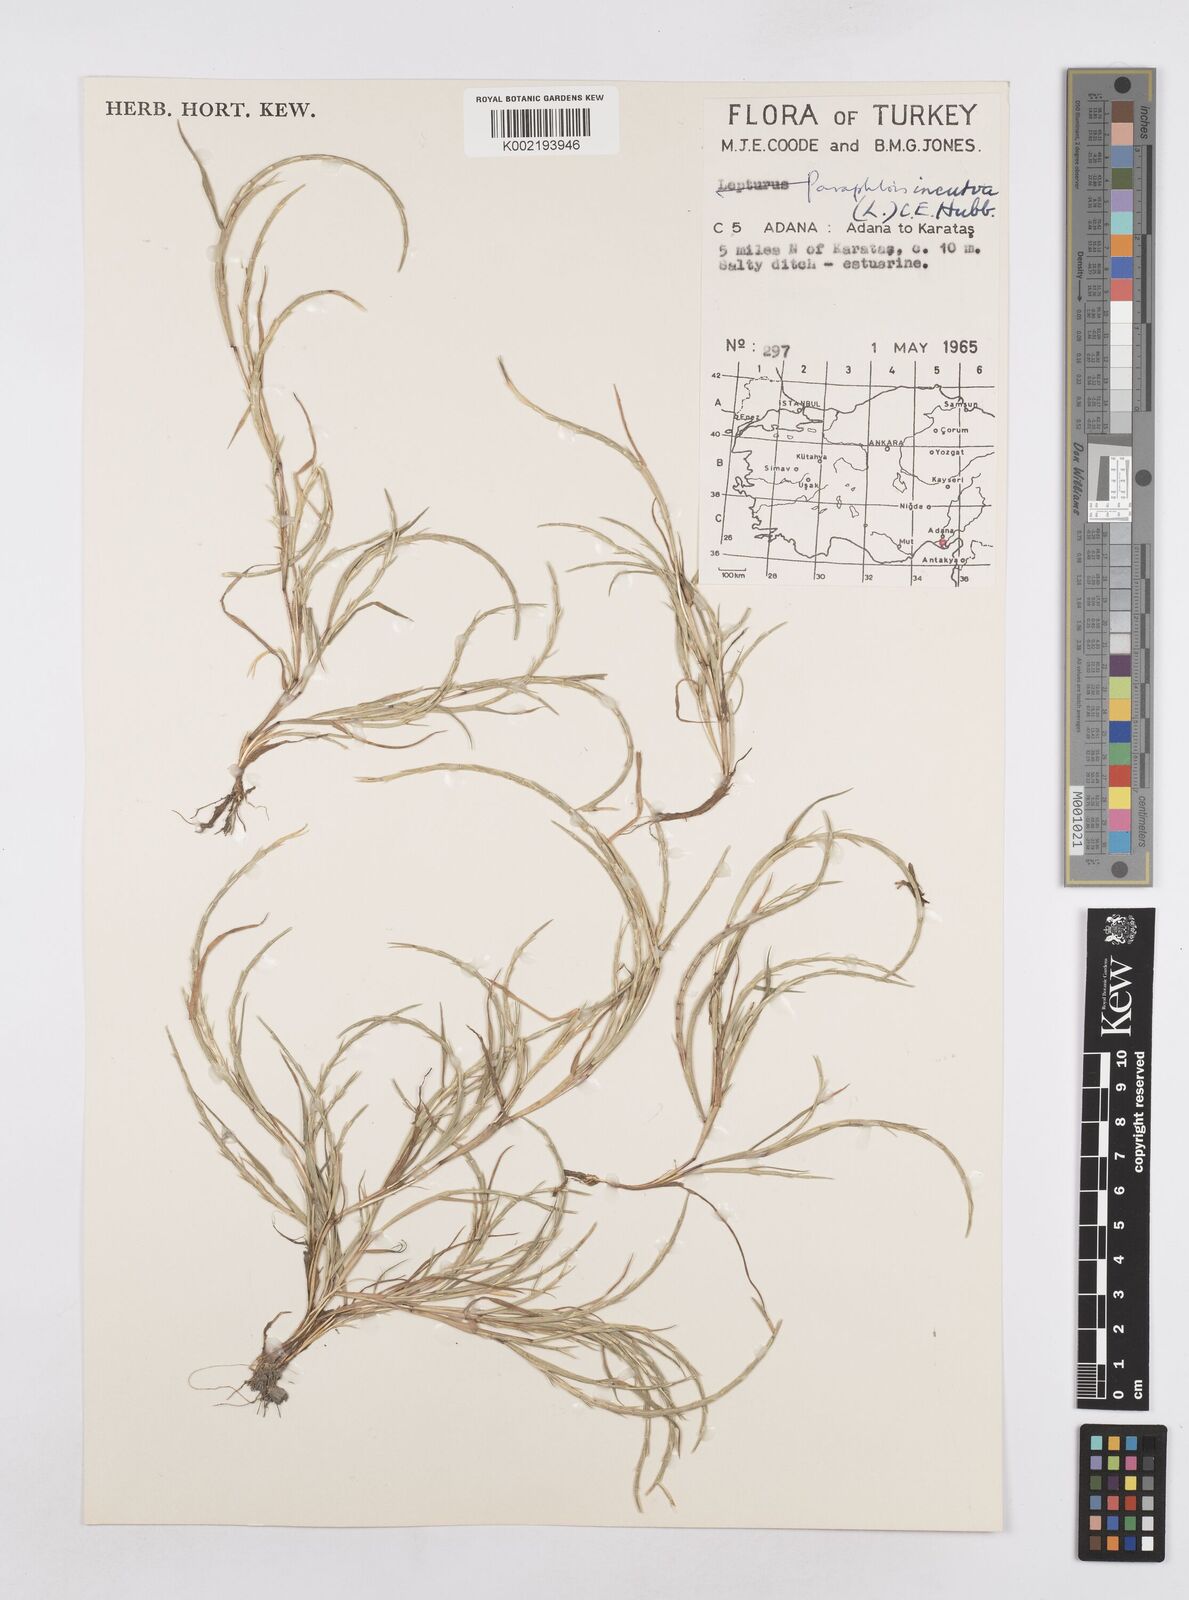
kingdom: Plantae
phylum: Tracheophyta
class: Liliopsida
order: Poales
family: Poaceae
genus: Parapholis
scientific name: Parapholis incurva
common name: Curved sicklegrass
